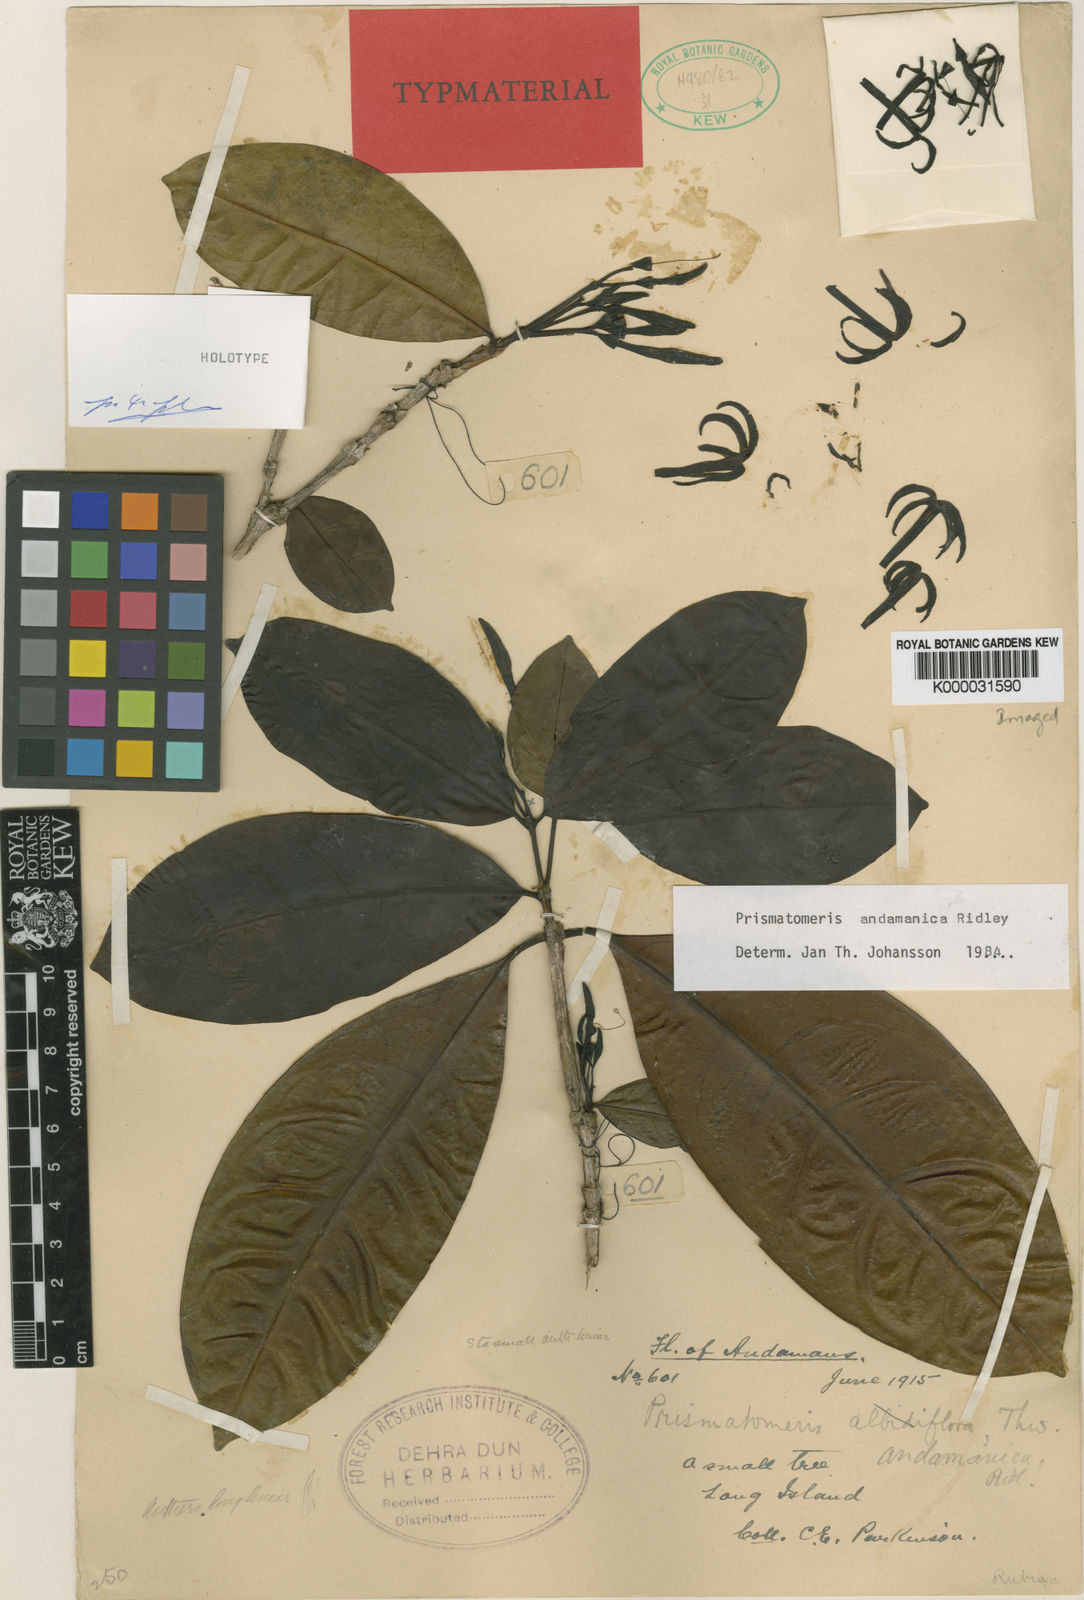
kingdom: Plantae
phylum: Tracheophyta
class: Magnoliopsida
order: Gentianales
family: Rubiaceae
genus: Prismatomeris
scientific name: Prismatomeris fragrans
